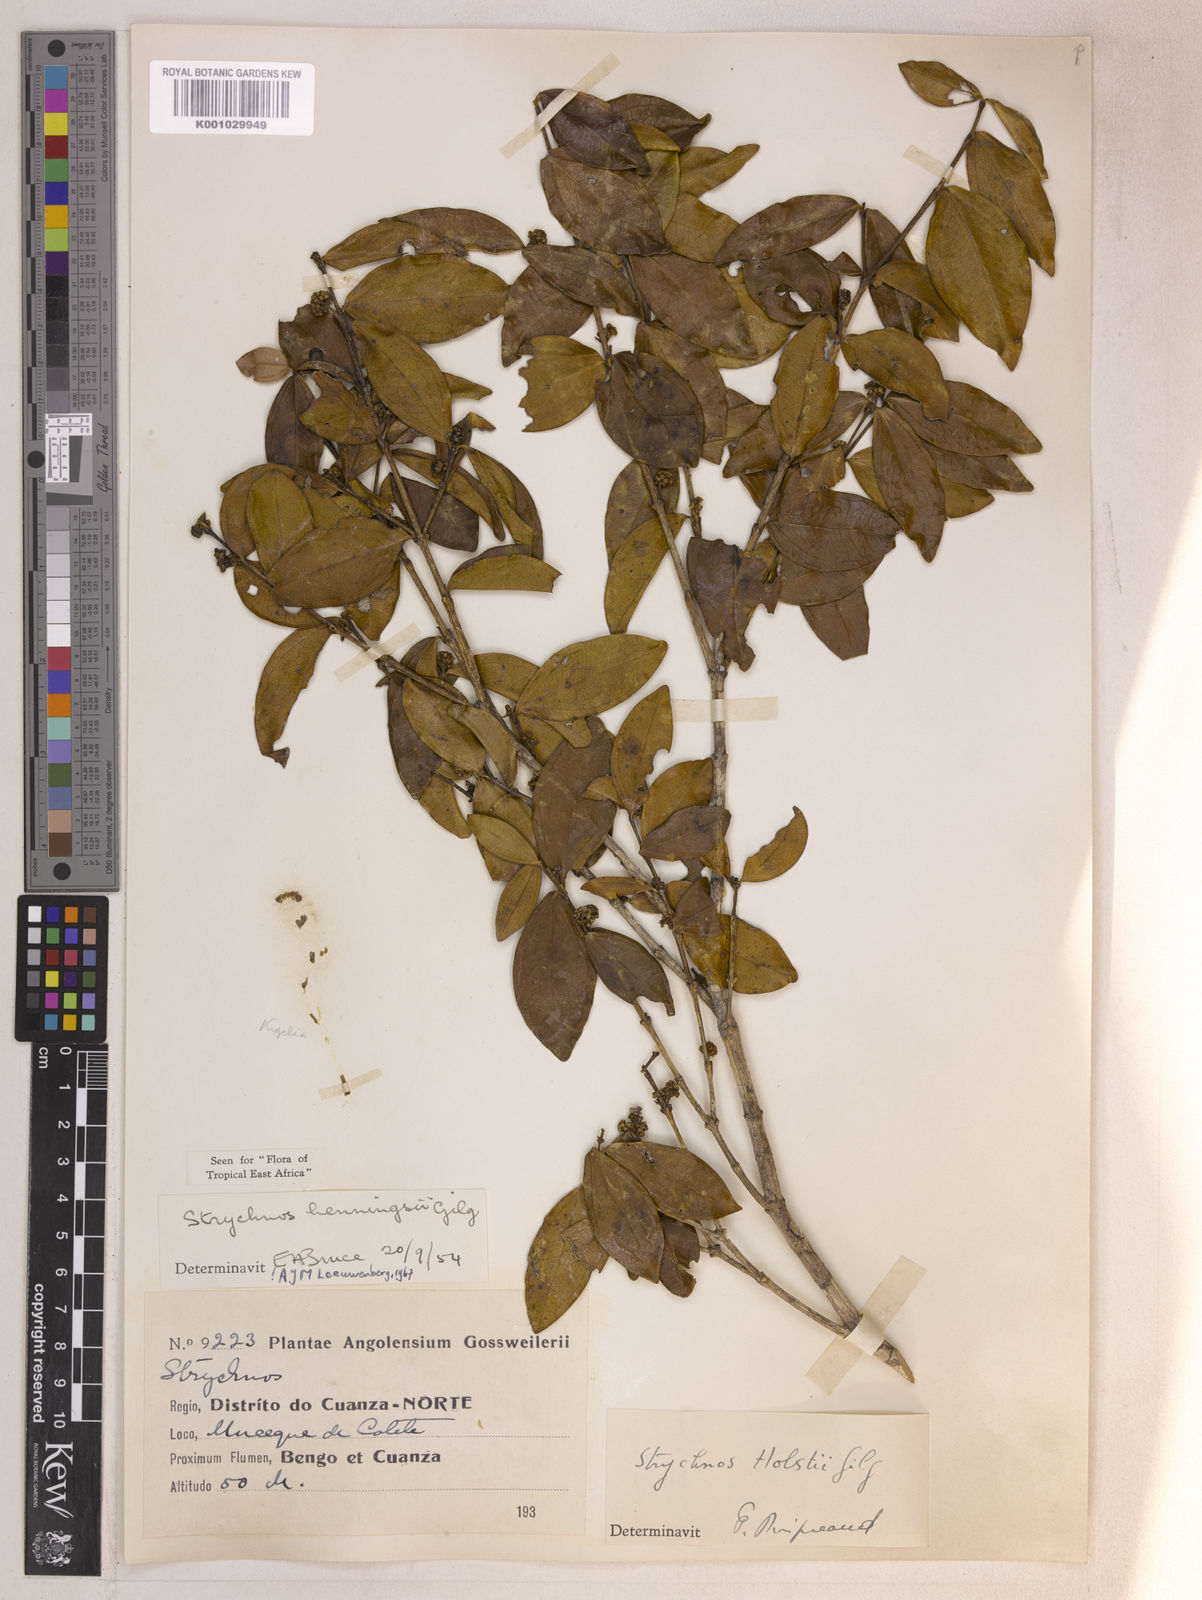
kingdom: Plantae
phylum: Tracheophyta
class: Magnoliopsida
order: Gentianales
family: Loganiaceae
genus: Strychnos
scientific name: Strychnos henningsii
